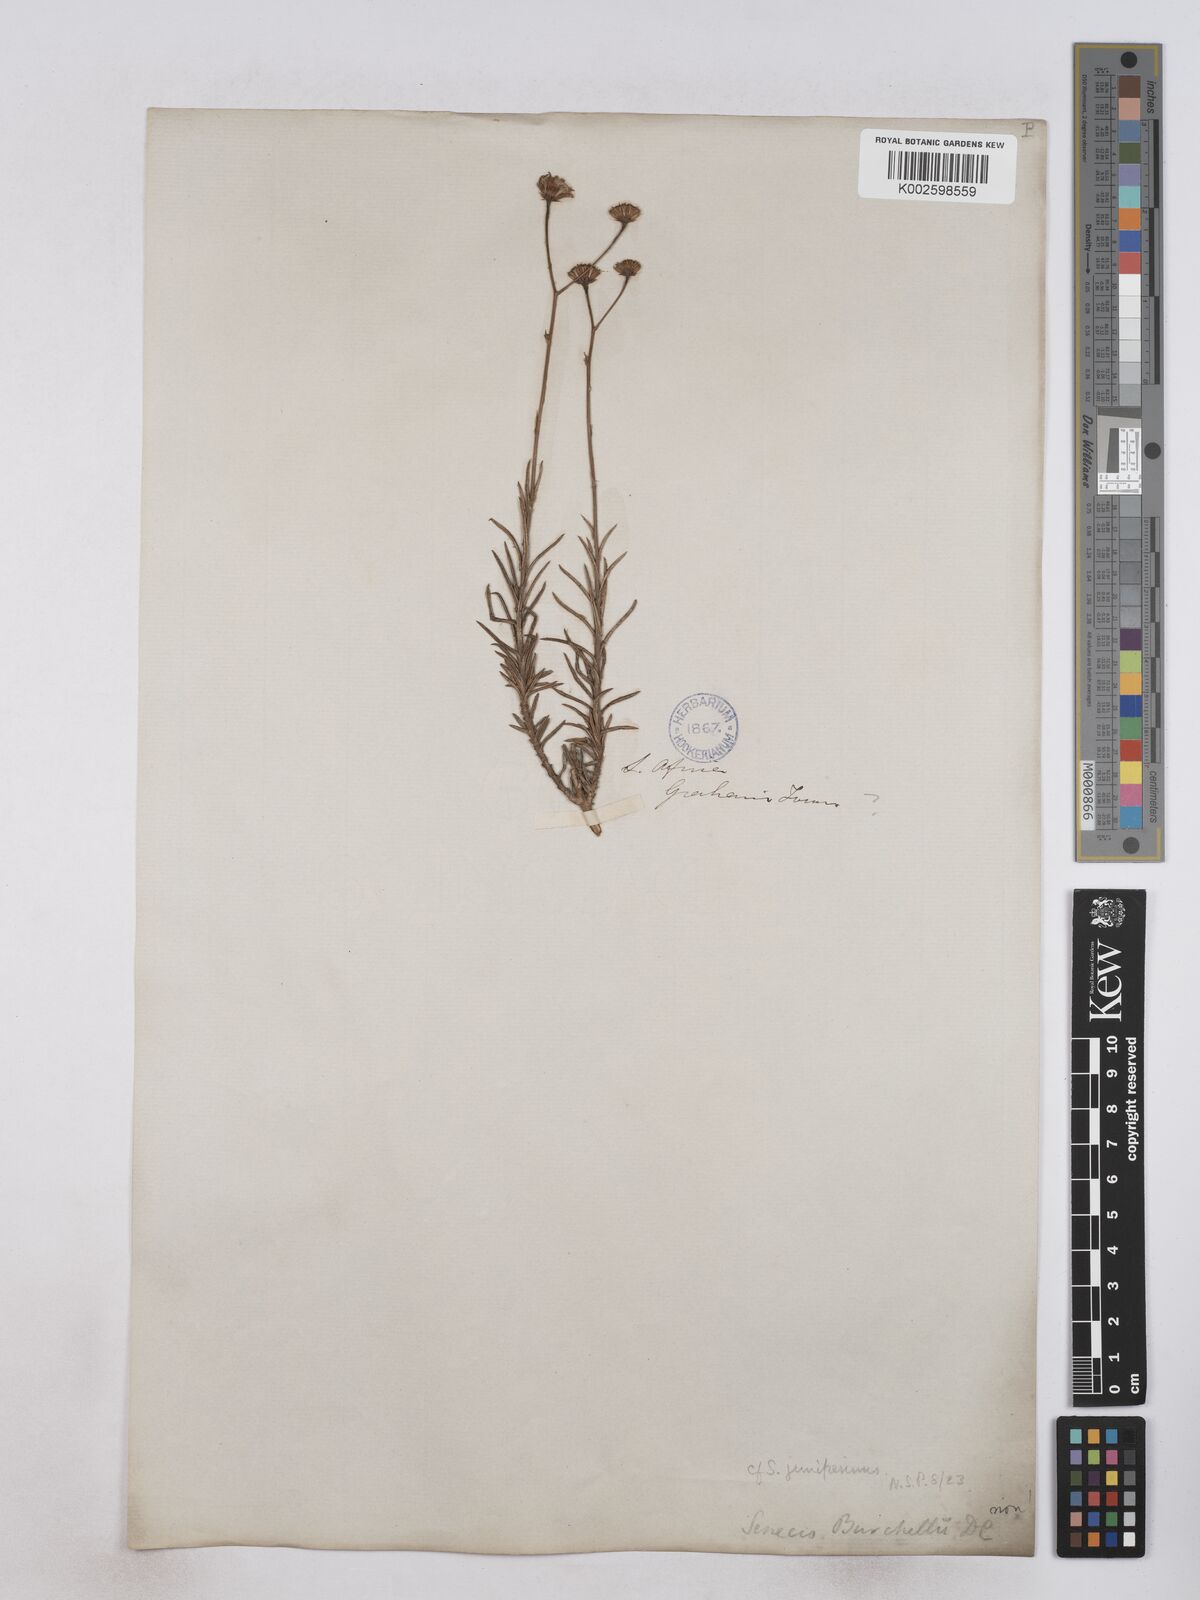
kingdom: Plantae
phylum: Tracheophyta
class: Magnoliopsida
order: Asterales
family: Asteraceae
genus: Senecio
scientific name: Senecio juniperinus
